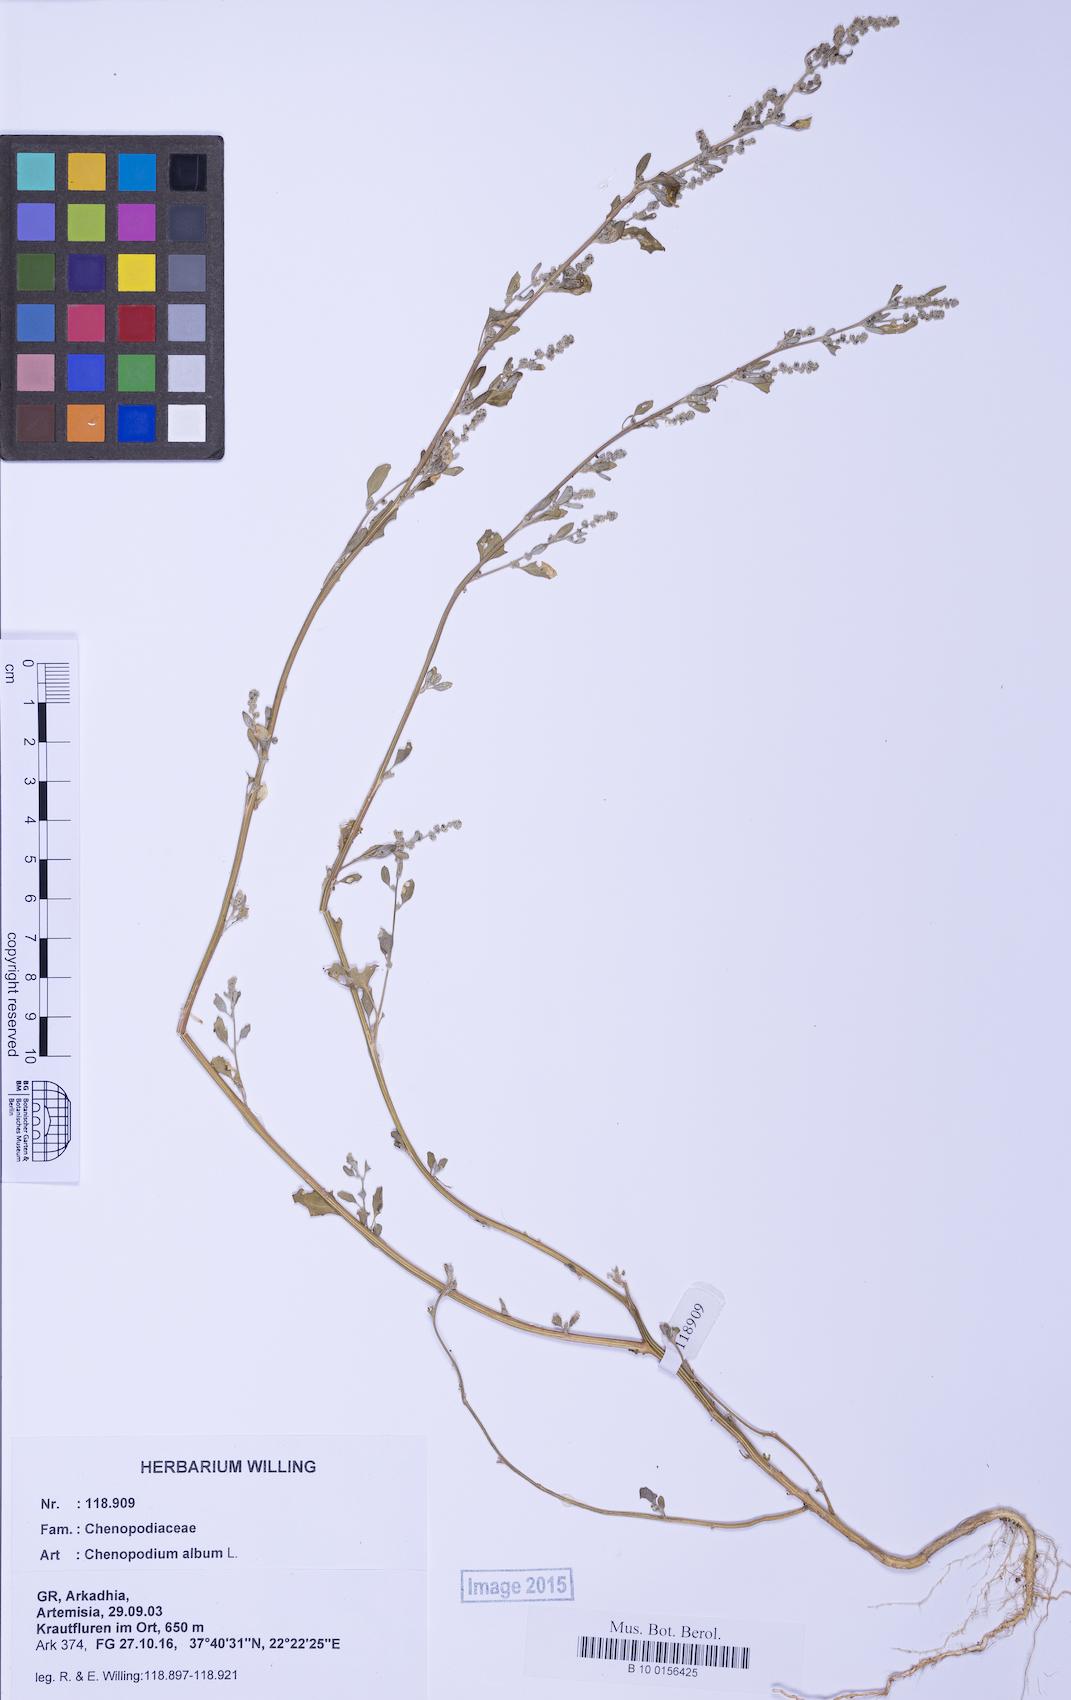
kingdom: Plantae
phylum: Tracheophyta
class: Magnoliopsida
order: Caryophyllales
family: Amaranthaceae
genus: Chenopodium
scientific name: Chenopodium album
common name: Fat-hen
